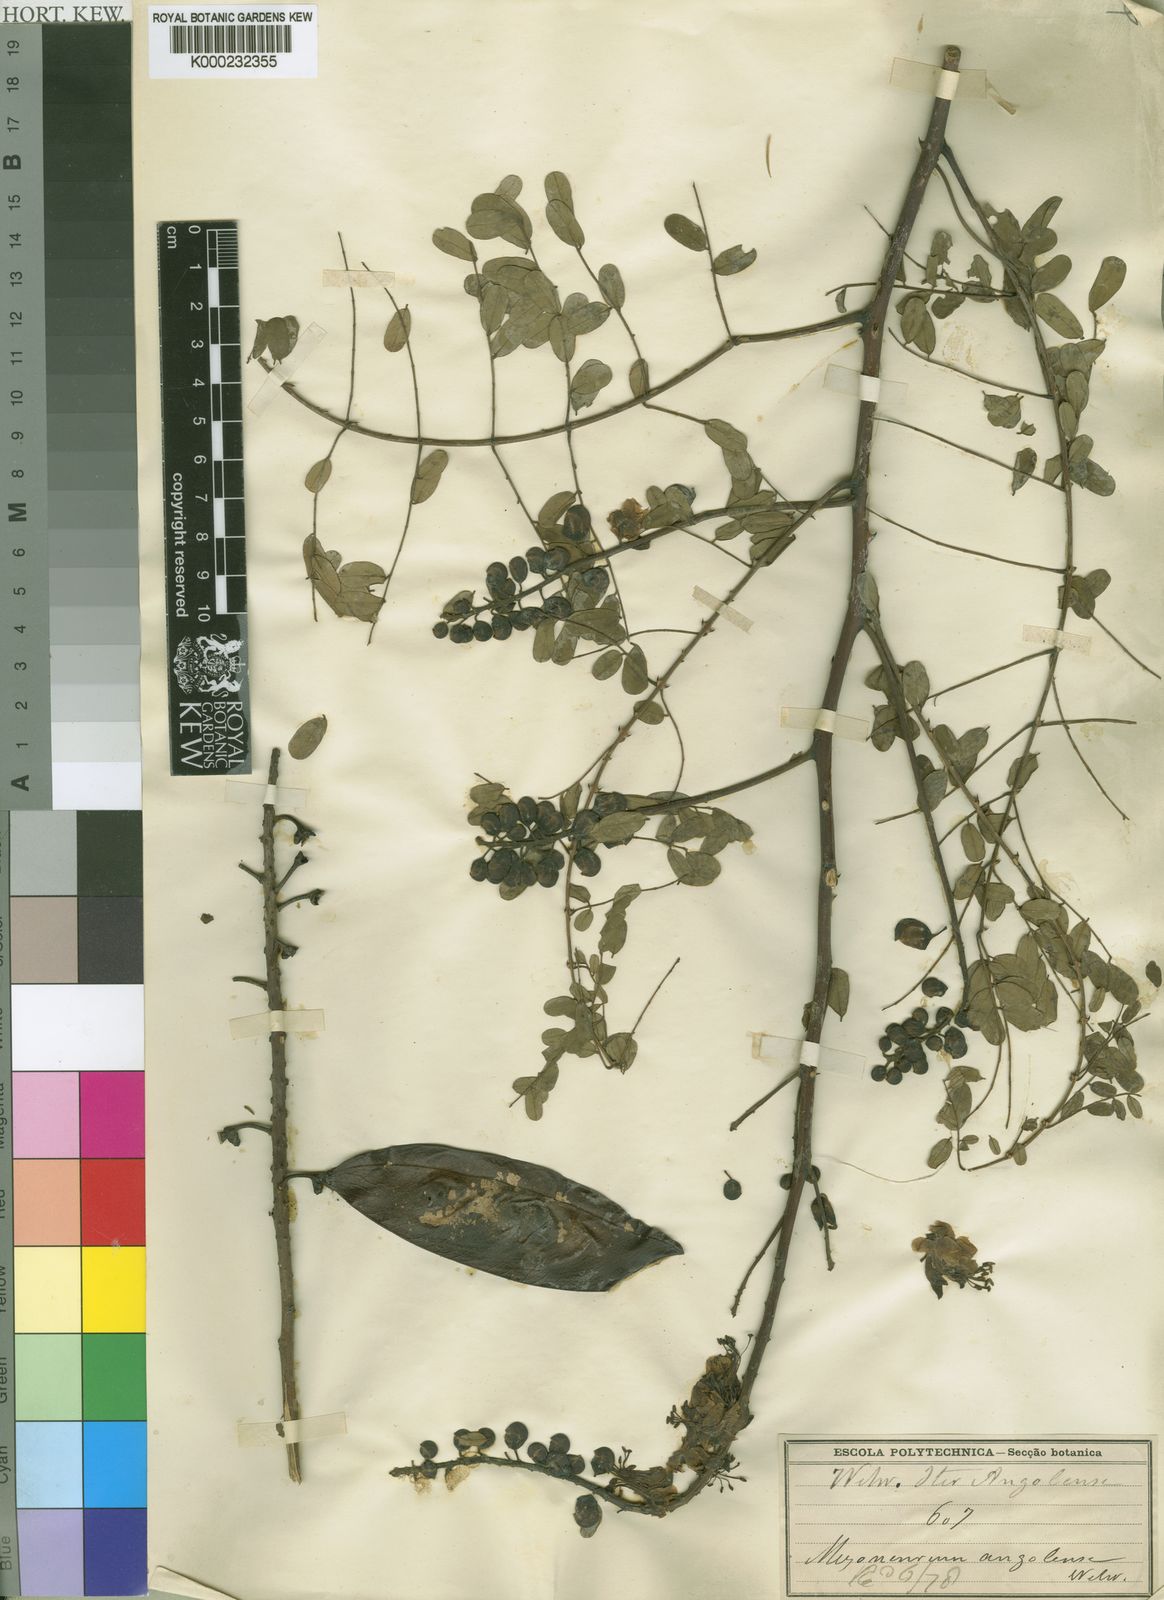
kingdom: Plantae
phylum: Tracheophyta
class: Magnoliopsida
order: Fabales
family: Fabaceae
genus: Mezoneuron
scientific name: Mezoneuron angolense
